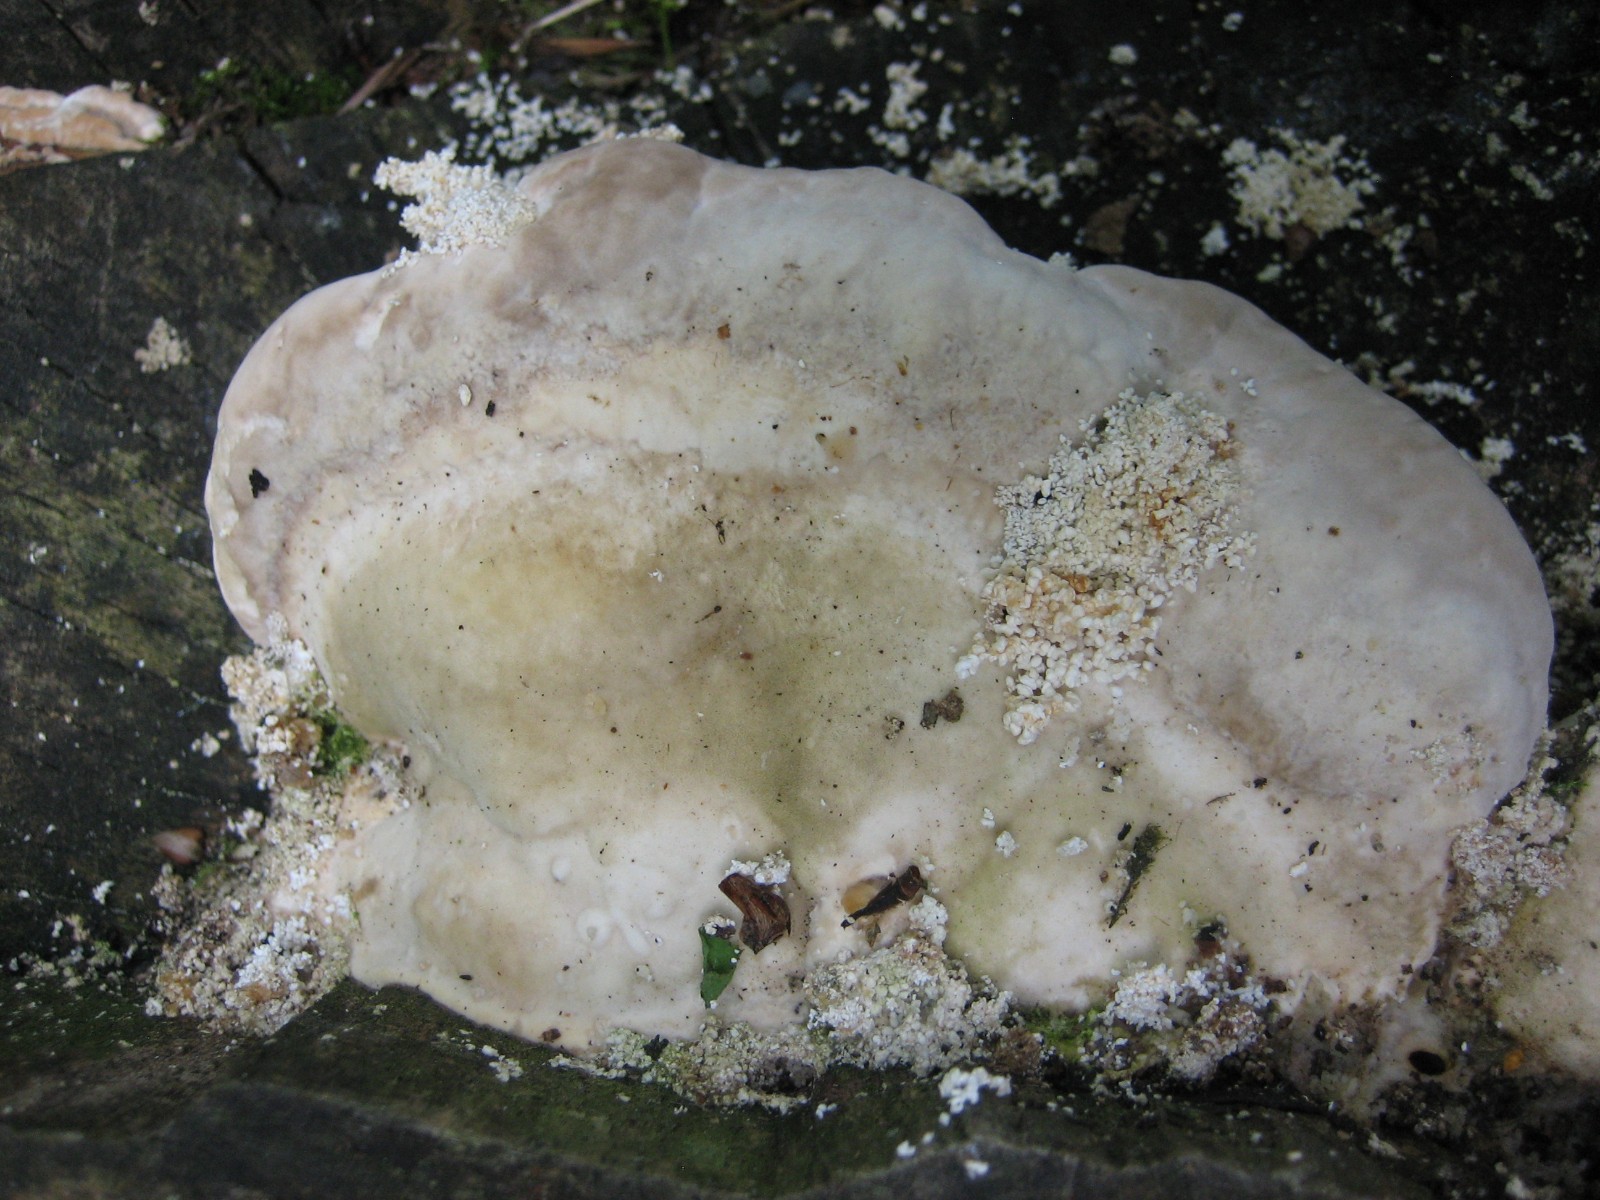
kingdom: Fungi
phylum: Basidiomycota
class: Agaricomycetes
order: Polyporales
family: Polyporaceae
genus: Trametes
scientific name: Trametes gibbosa
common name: puklet læderporesvamp
